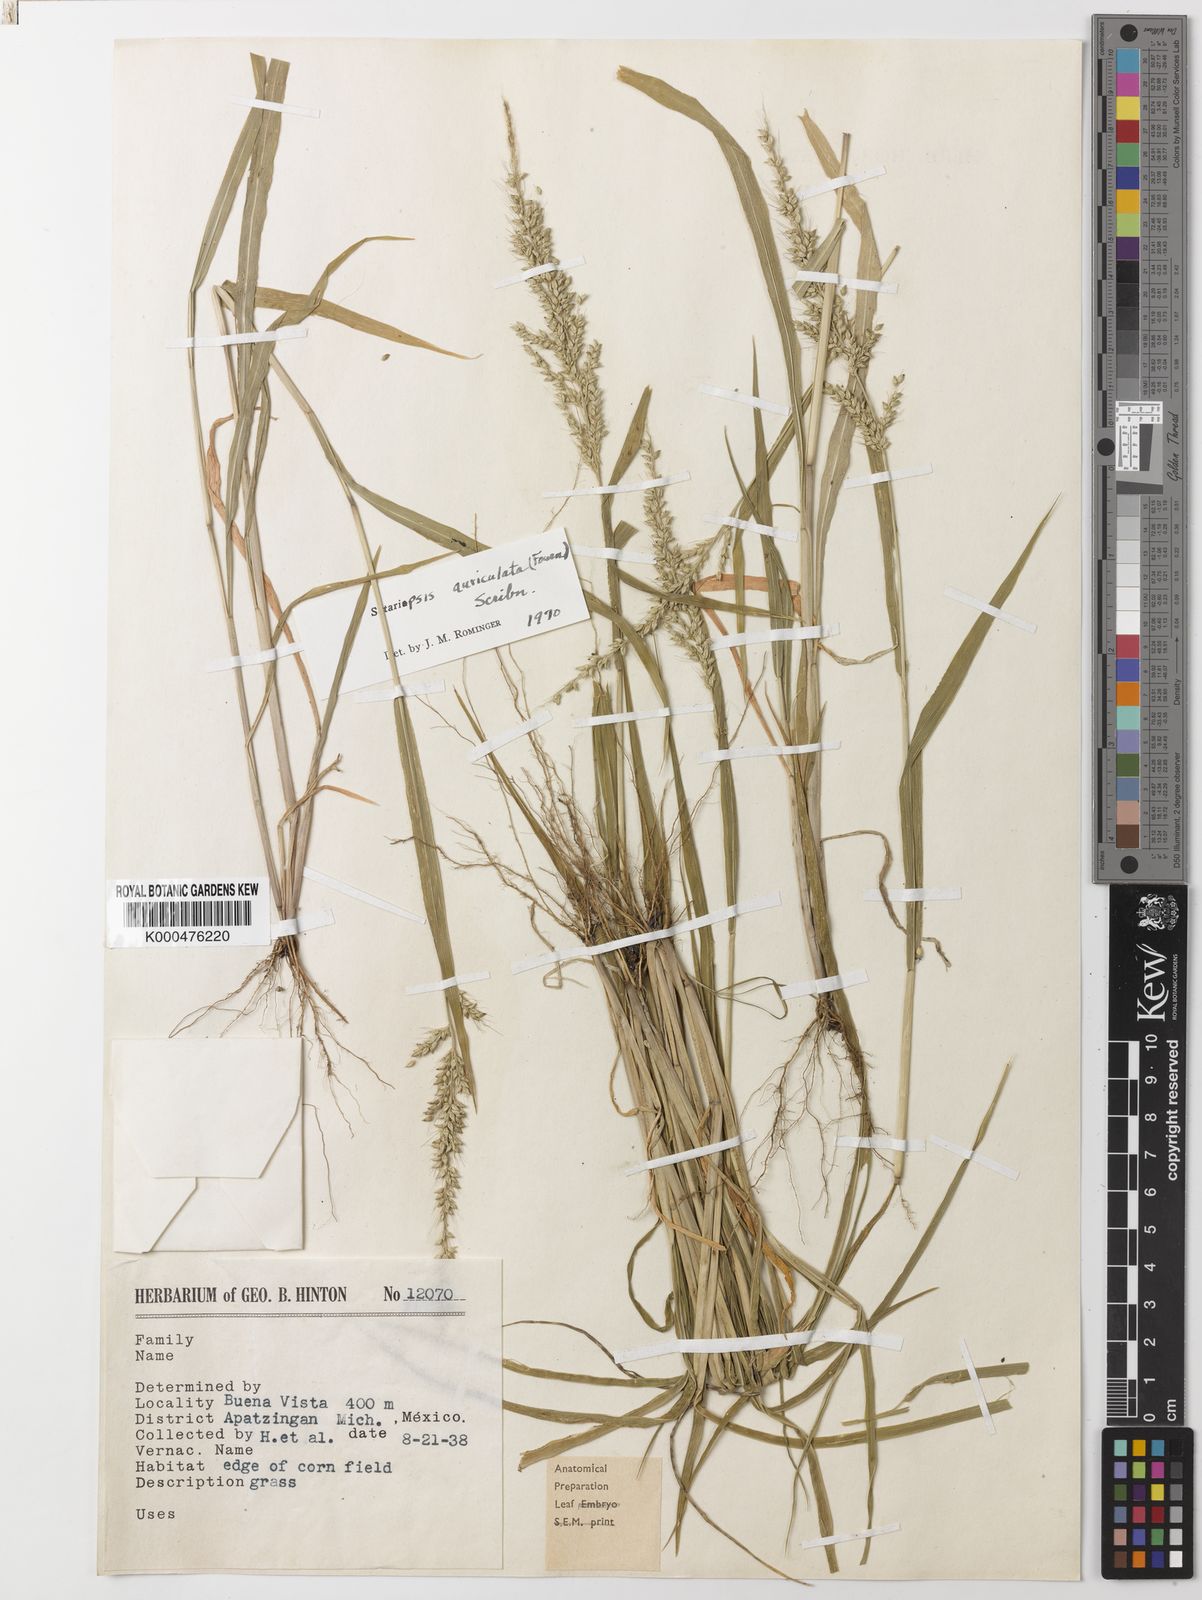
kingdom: Plantae
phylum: Tracheophyta
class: Liliopsida
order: Poales
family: Poaceae
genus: Setariopsis
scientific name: Setariopsis auriculata
